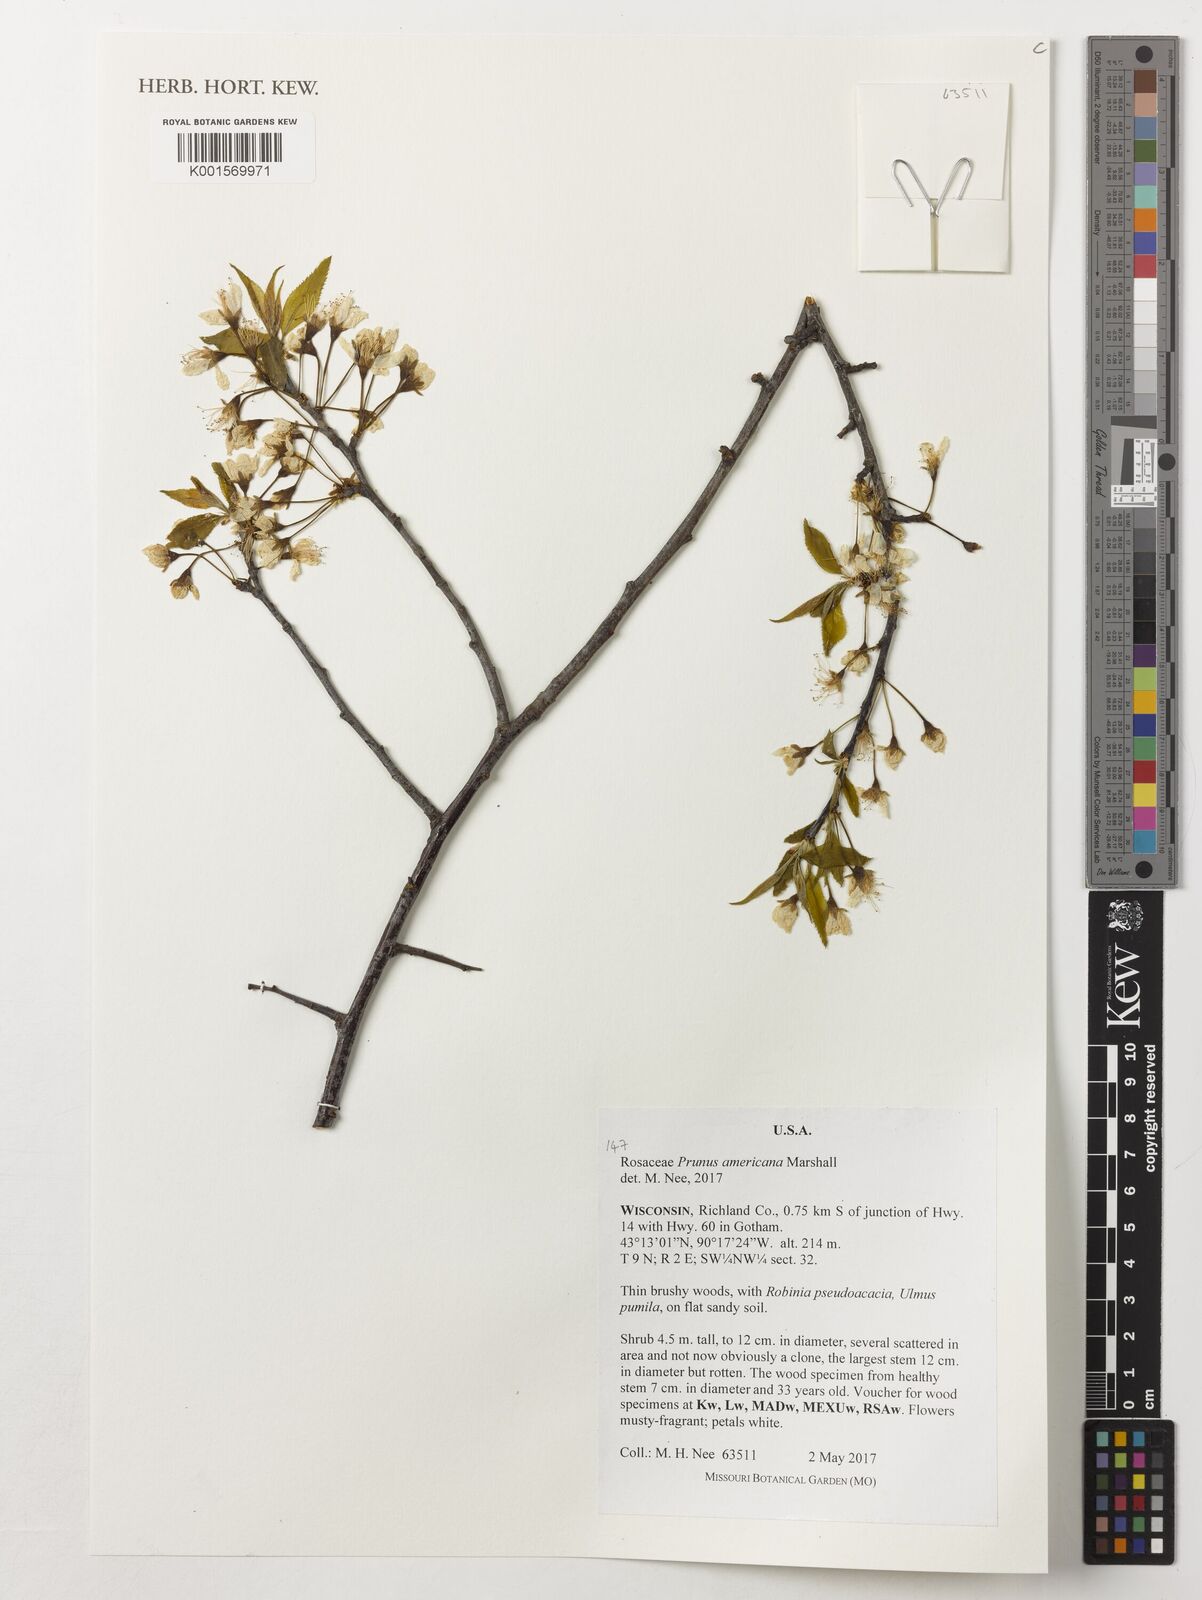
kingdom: Plantae
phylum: Tracheophyta
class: Magnoliopsida
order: Rosales
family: Rosaceae
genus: Prunus
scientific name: Prunus americana
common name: American plum
